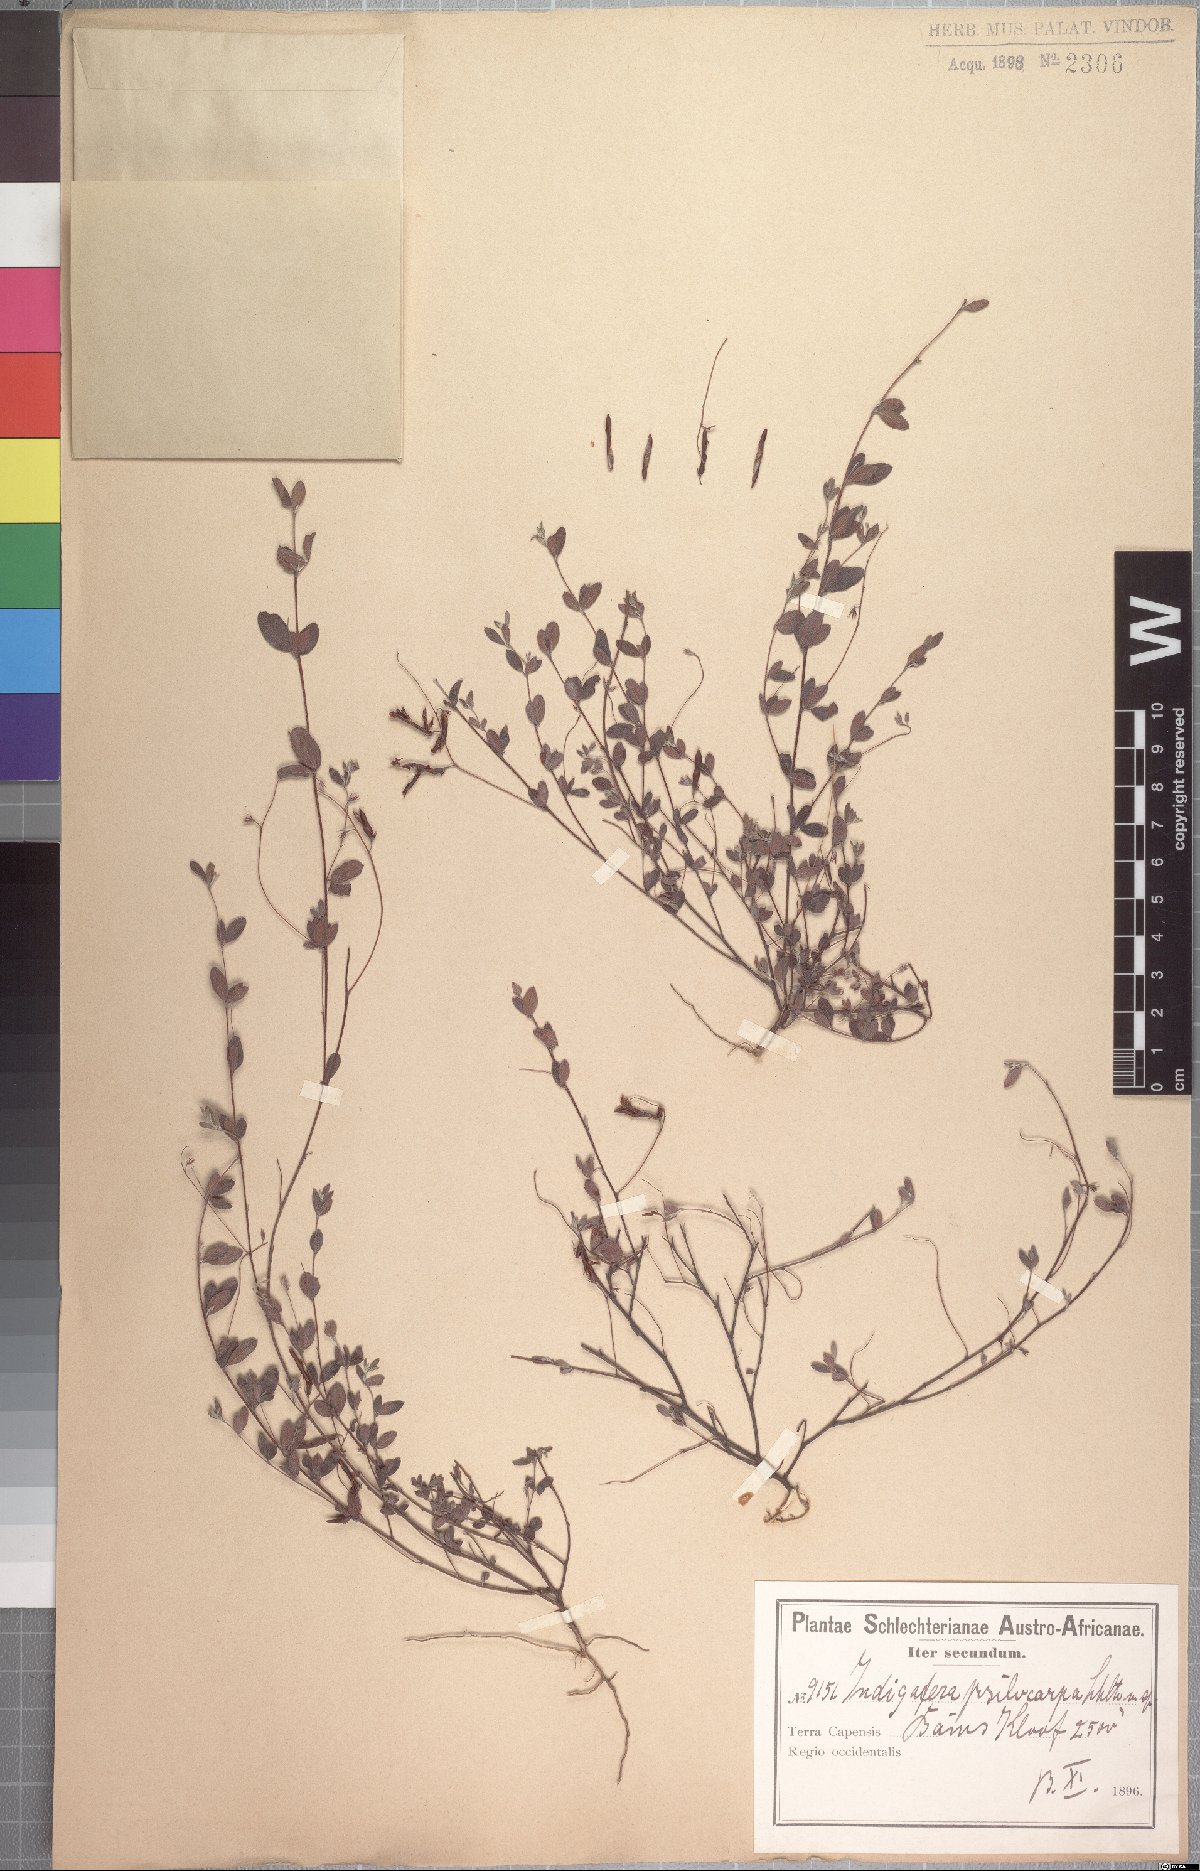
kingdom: Plantae
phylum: Tracheophyta
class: Magnoliopsida
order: Fabales
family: Fabaceae
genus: Indigofera
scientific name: Indigofera sarmentosa
